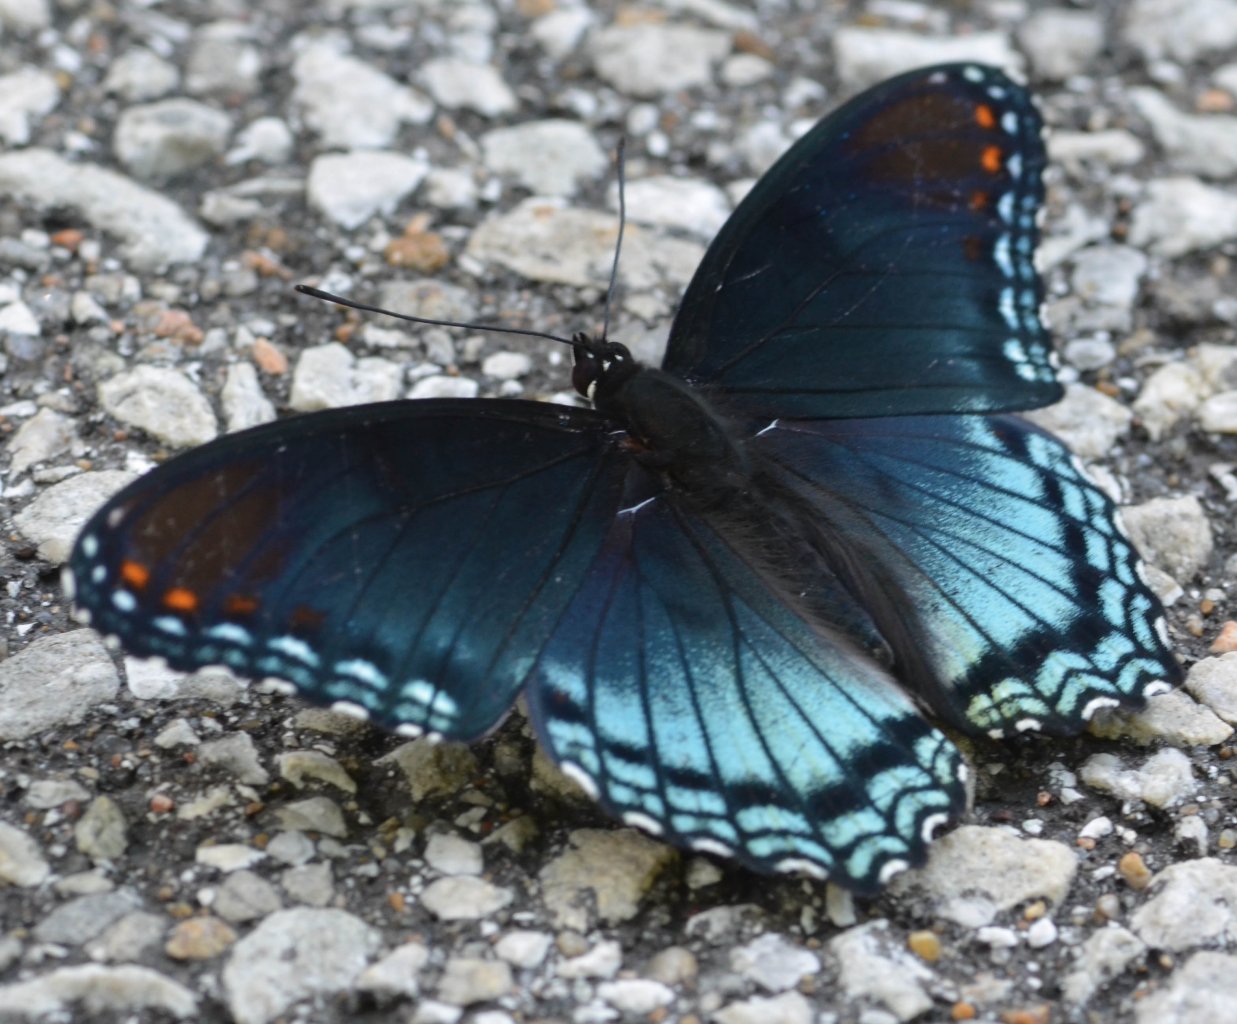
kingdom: Animalia
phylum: Arthropoda
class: Insecta
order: Lepidoptera
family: Nymphalidae
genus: Limenitis
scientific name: Limenitis astyanax
